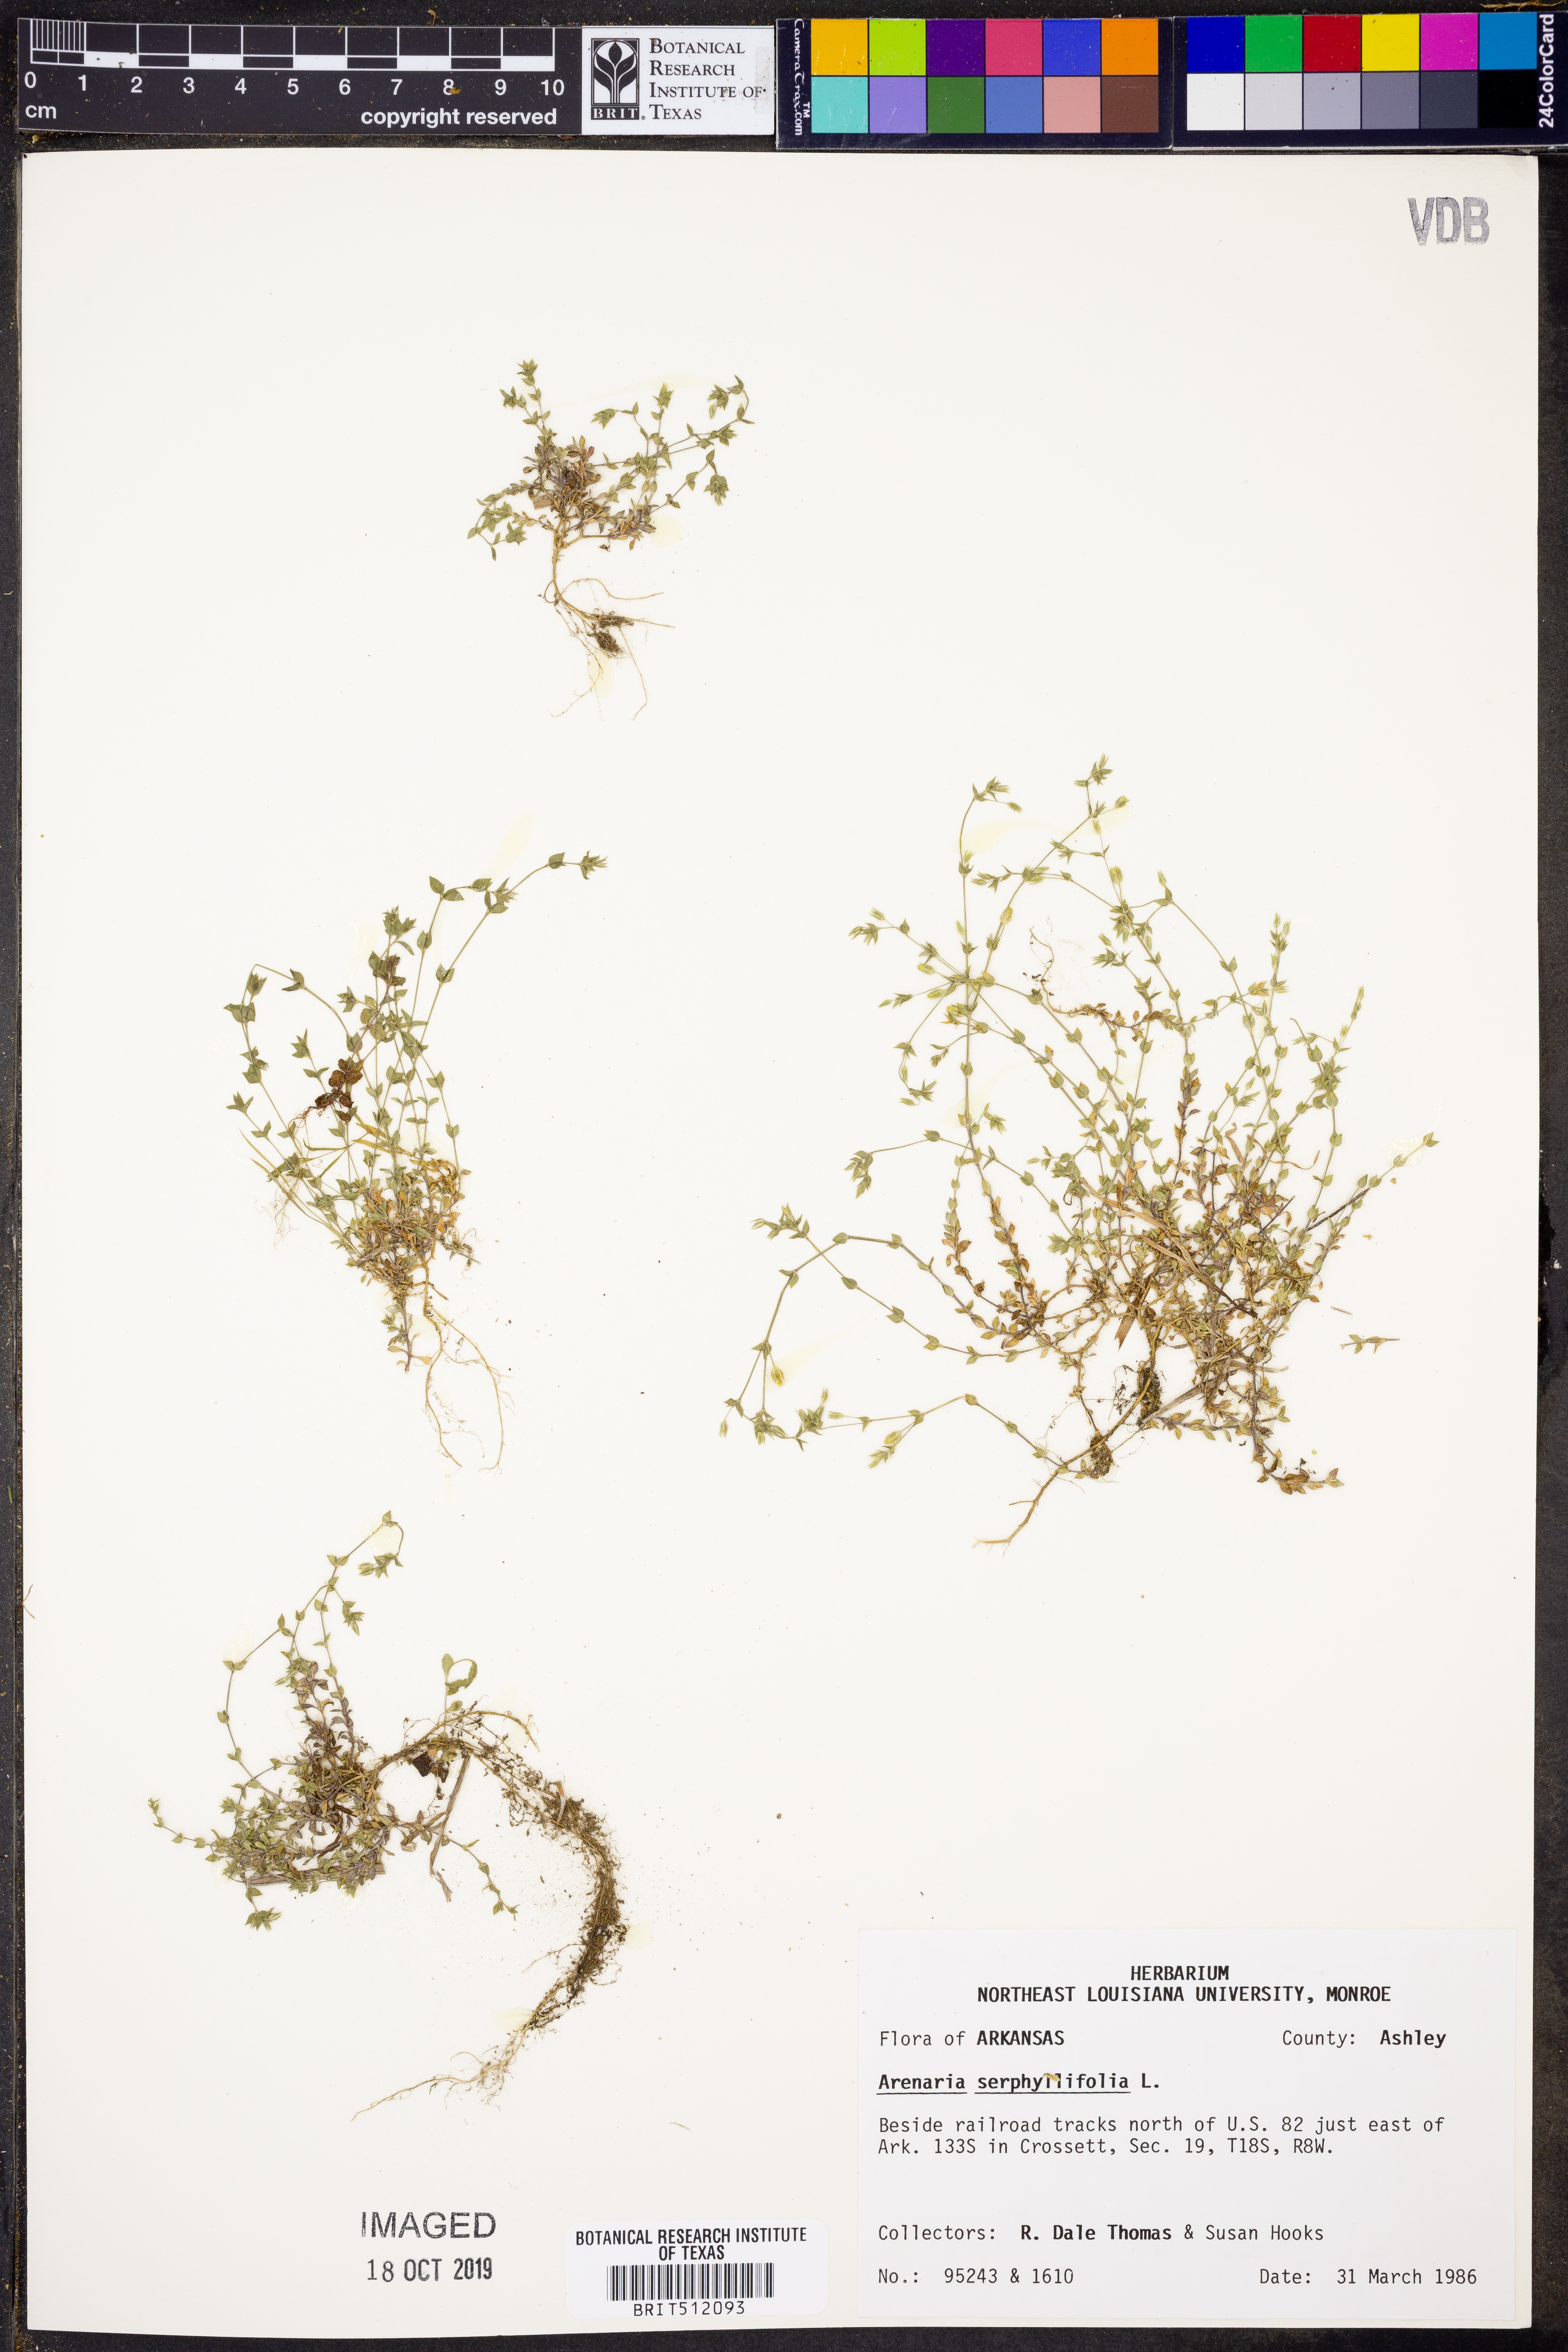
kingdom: Plantae
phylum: Tracheophyta
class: Magnoliopsida
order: Caryophyllales
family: Caryophyllaceae
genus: Arenaria
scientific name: Arenaria serpyllifolia
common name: Thyme-leaved sandwort
